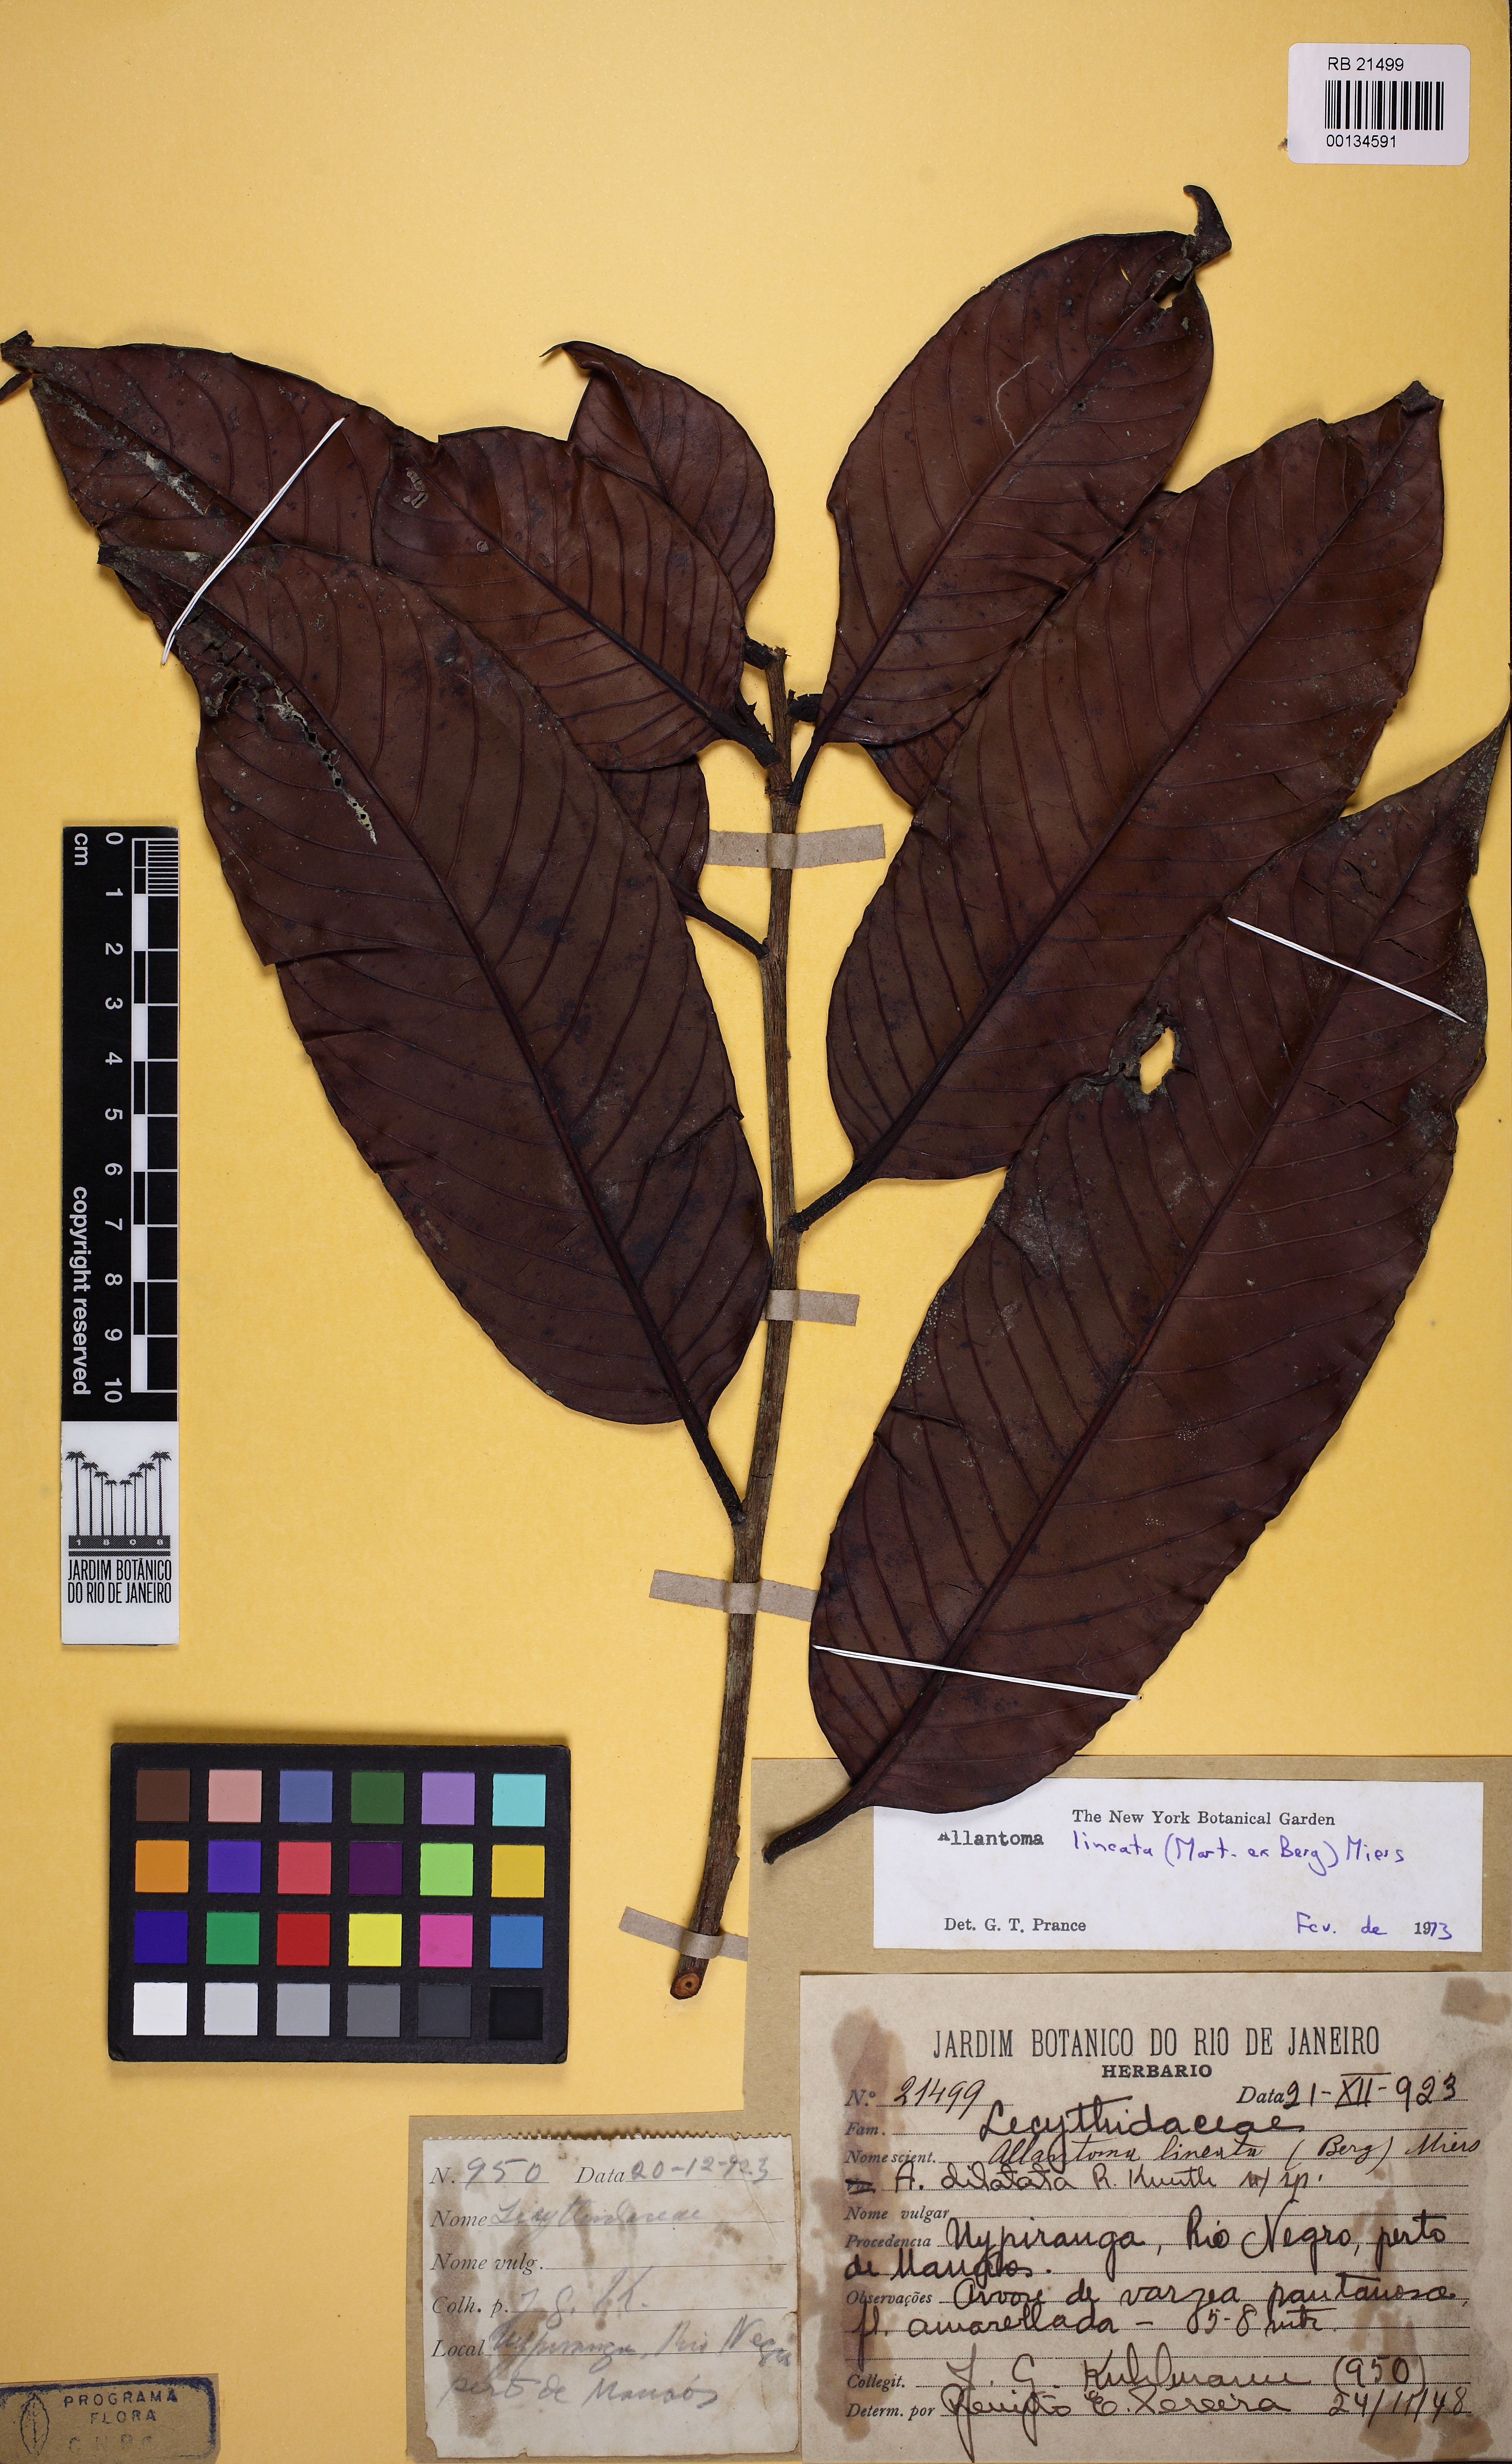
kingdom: Plantae
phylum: Tracheophyta
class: Magnoliopsida
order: Ericales
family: Lecythidaceae
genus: Allantoma
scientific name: Allantoma lineata
